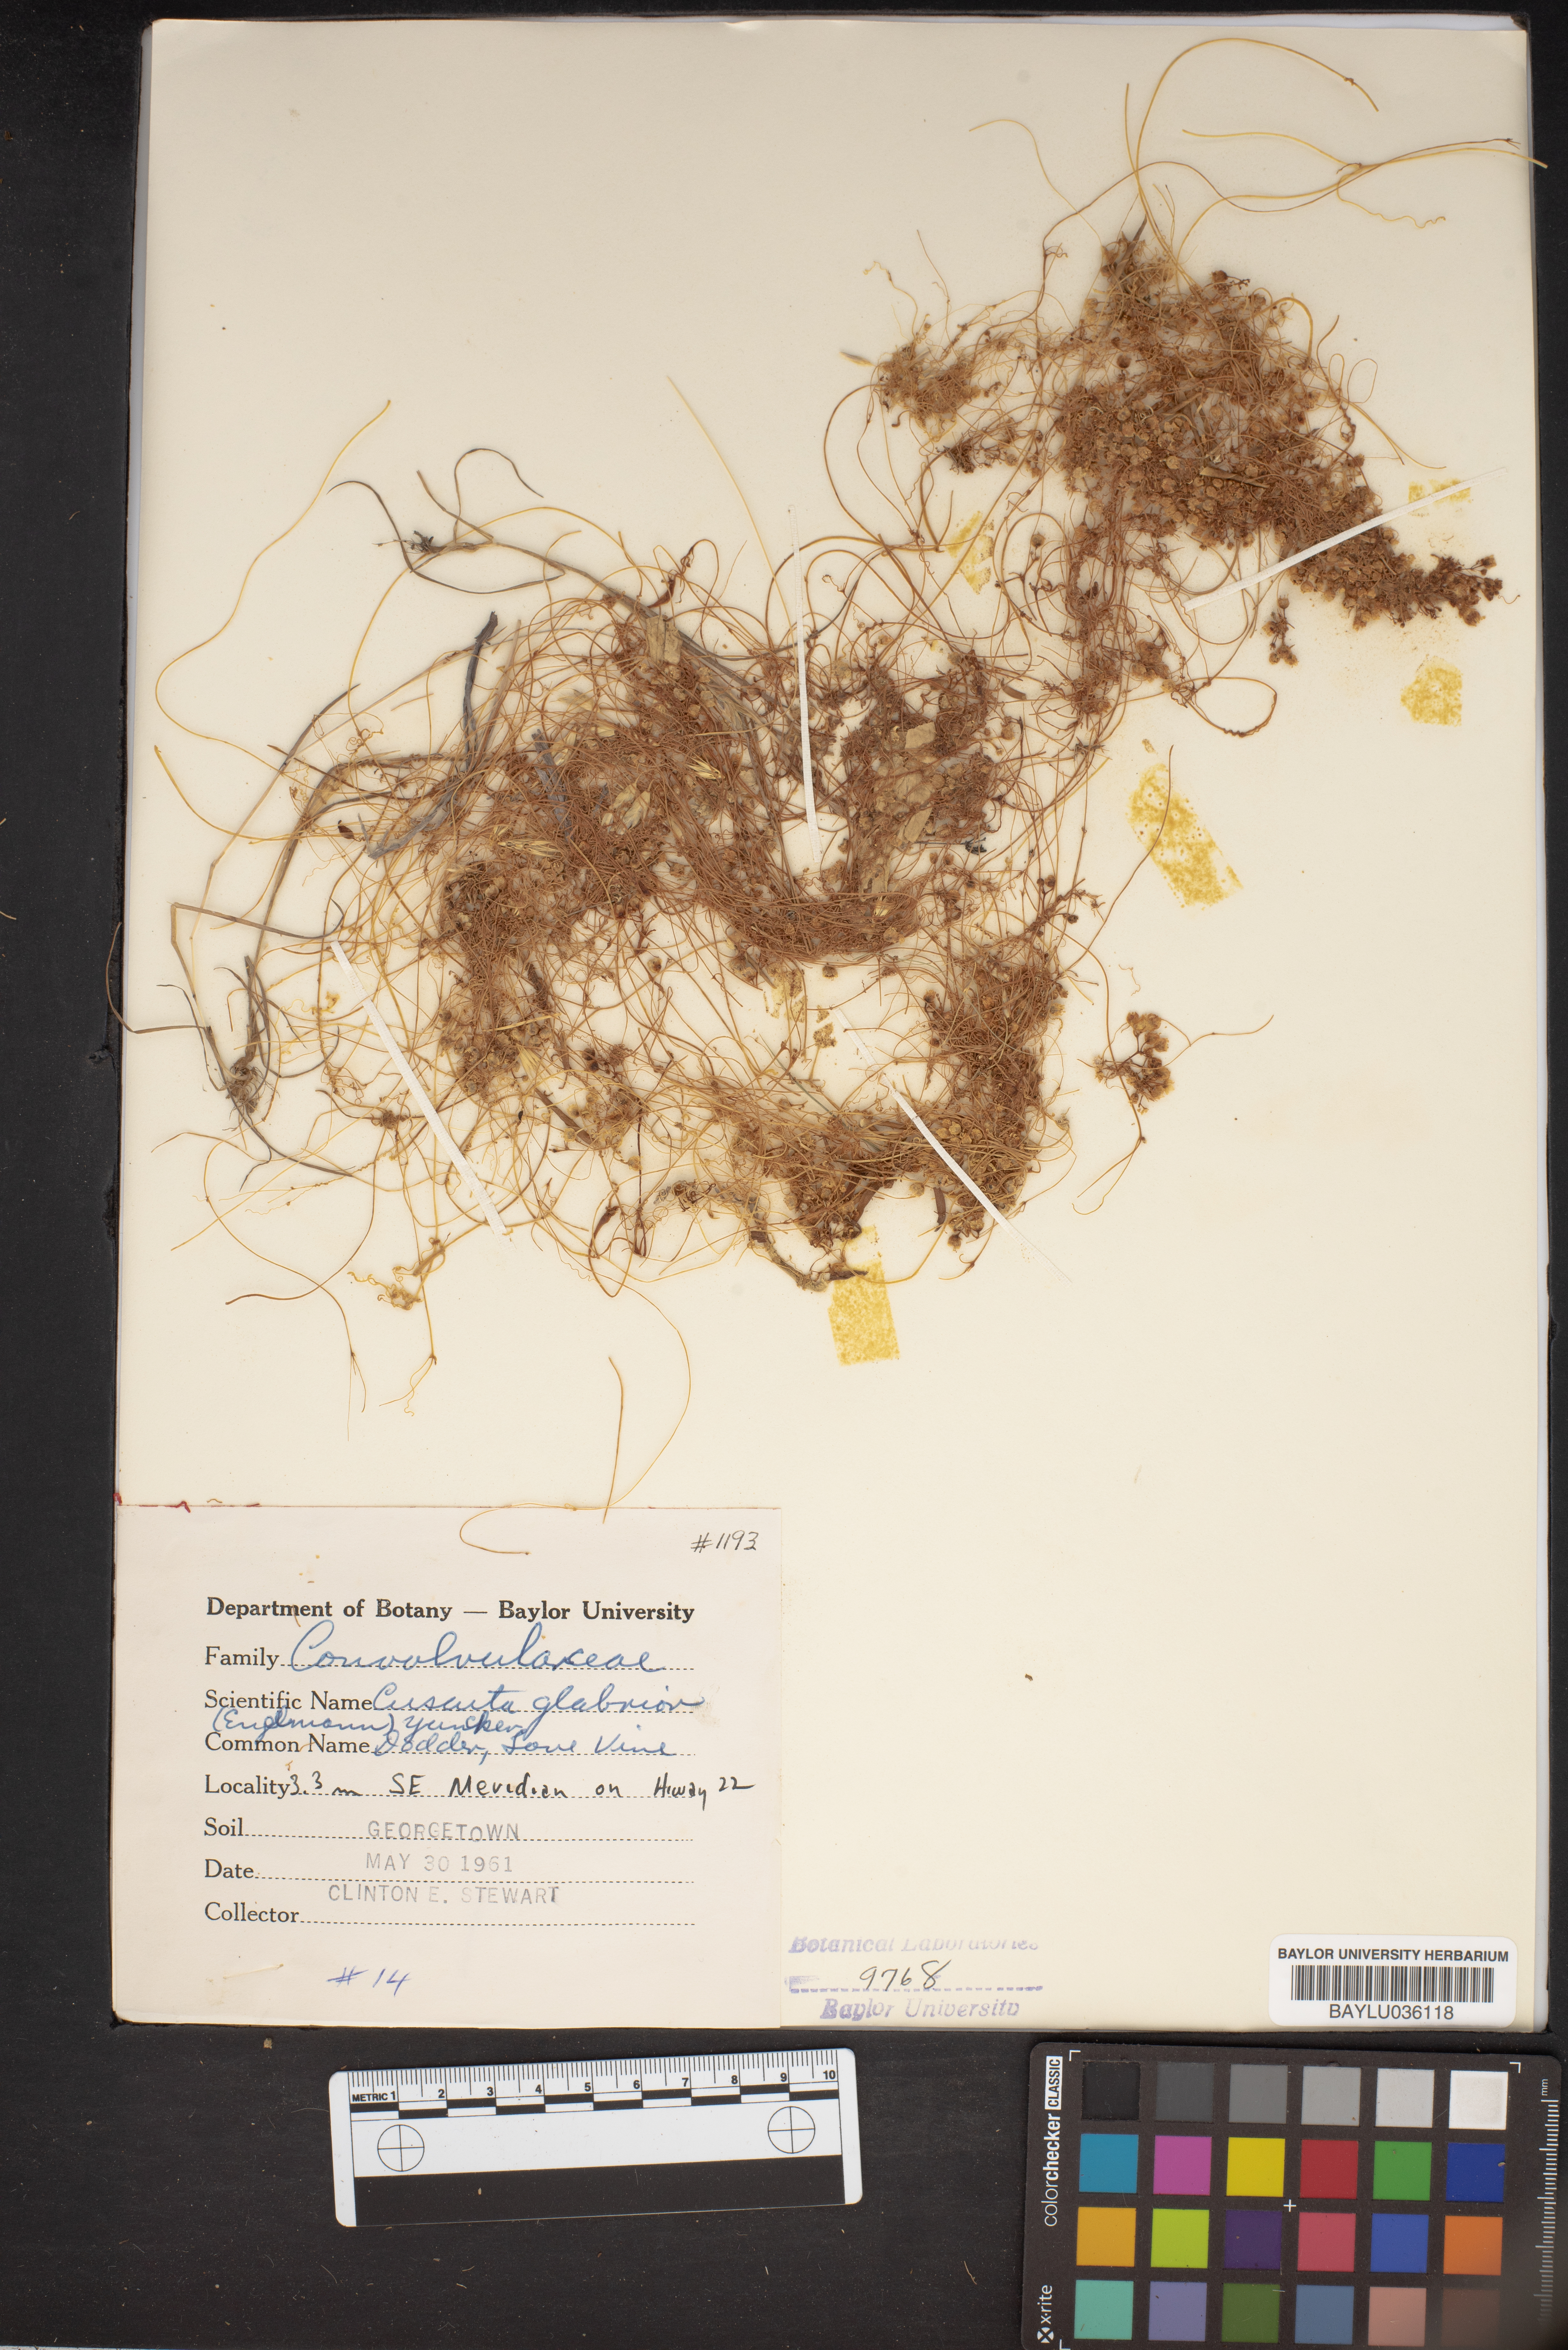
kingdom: Plantae
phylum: Tracheophyta
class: Magnoliopsida
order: Solanales
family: Convolvulaceae
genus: Cuscuta
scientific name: Cuscuta glabrior
